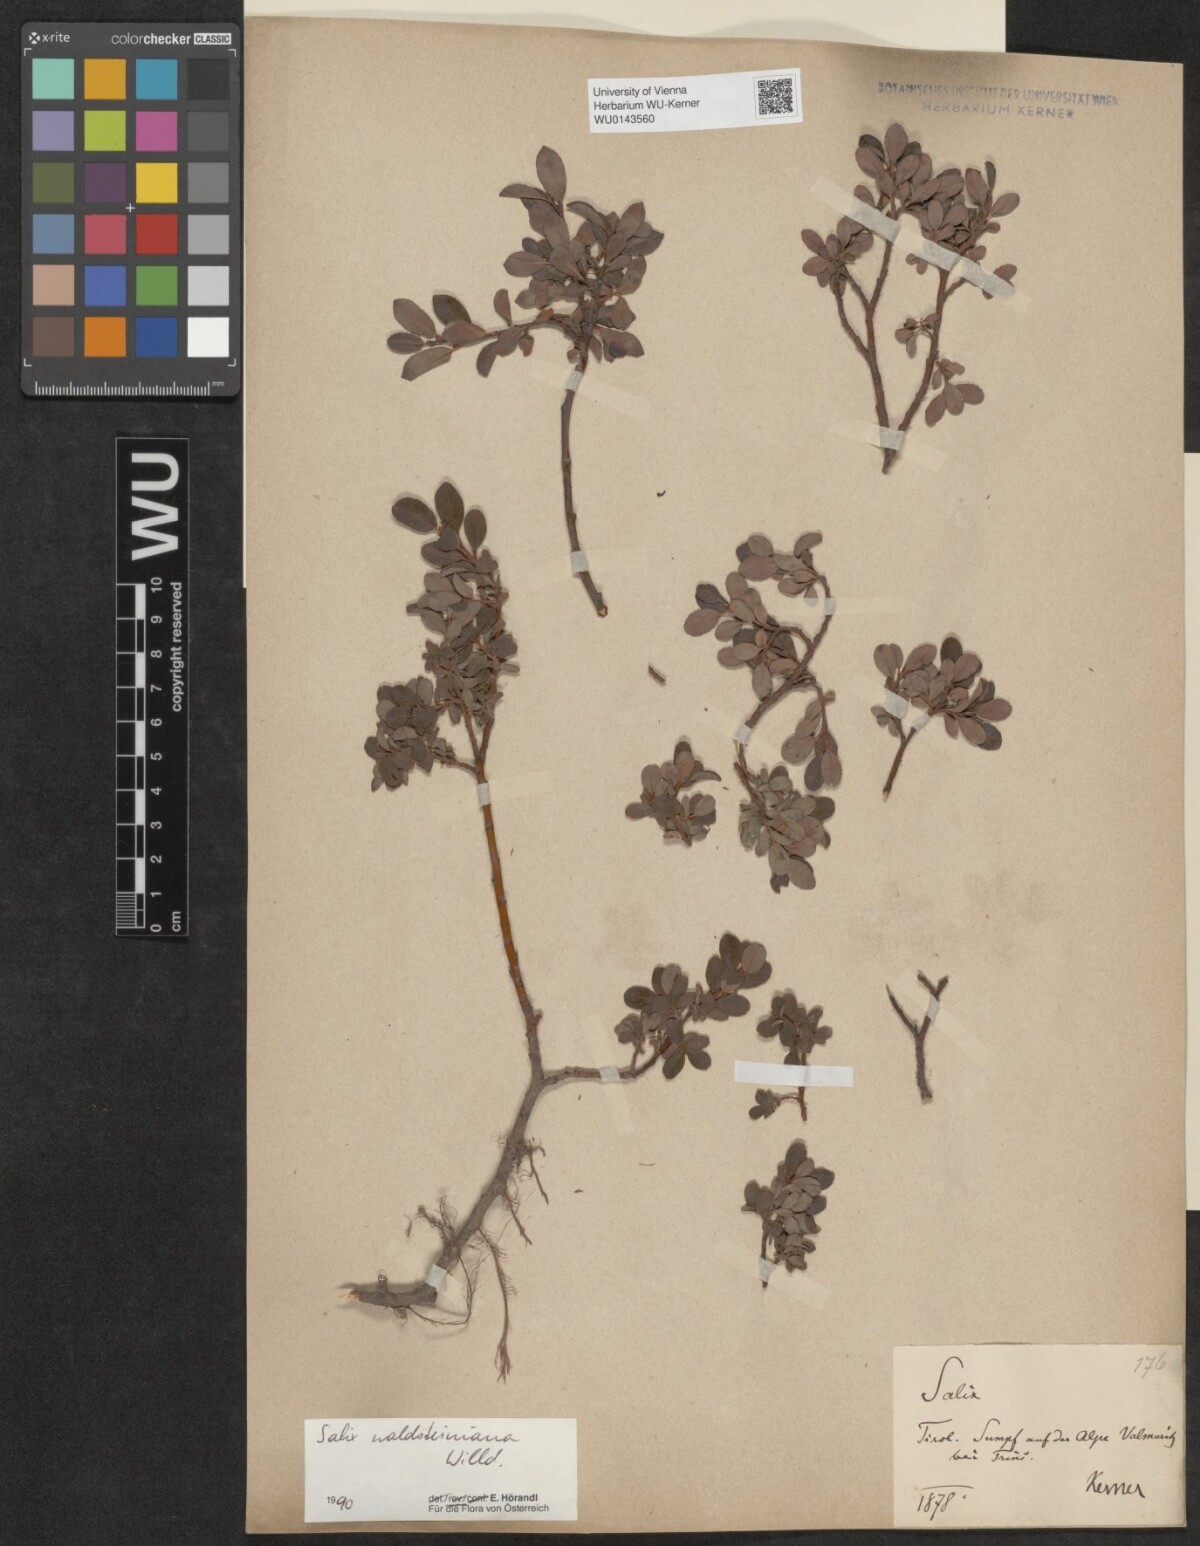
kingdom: Plantae
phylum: Tracheophyta
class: Magnoliopsida
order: Malpighiales
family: Salicaceae
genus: Salix
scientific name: Salix waldsteiniana
